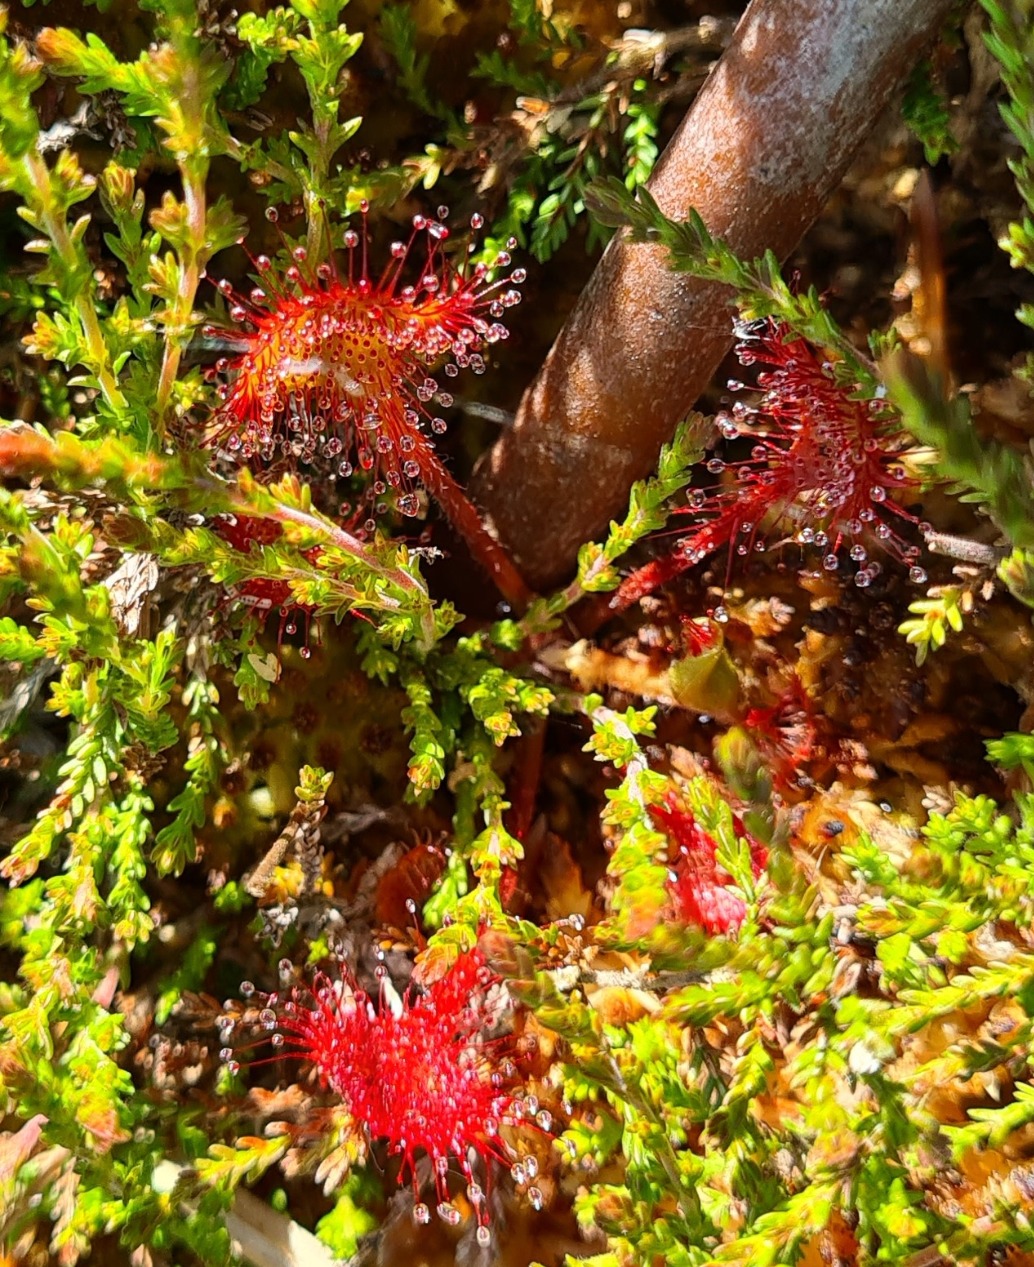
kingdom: Plantae
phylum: Tracheophyta
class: Magnoliopsida
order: Caryophyllales
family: Droseraceae
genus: Drosera
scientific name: Drosera rotundifolia
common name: Rundbladet soldug
